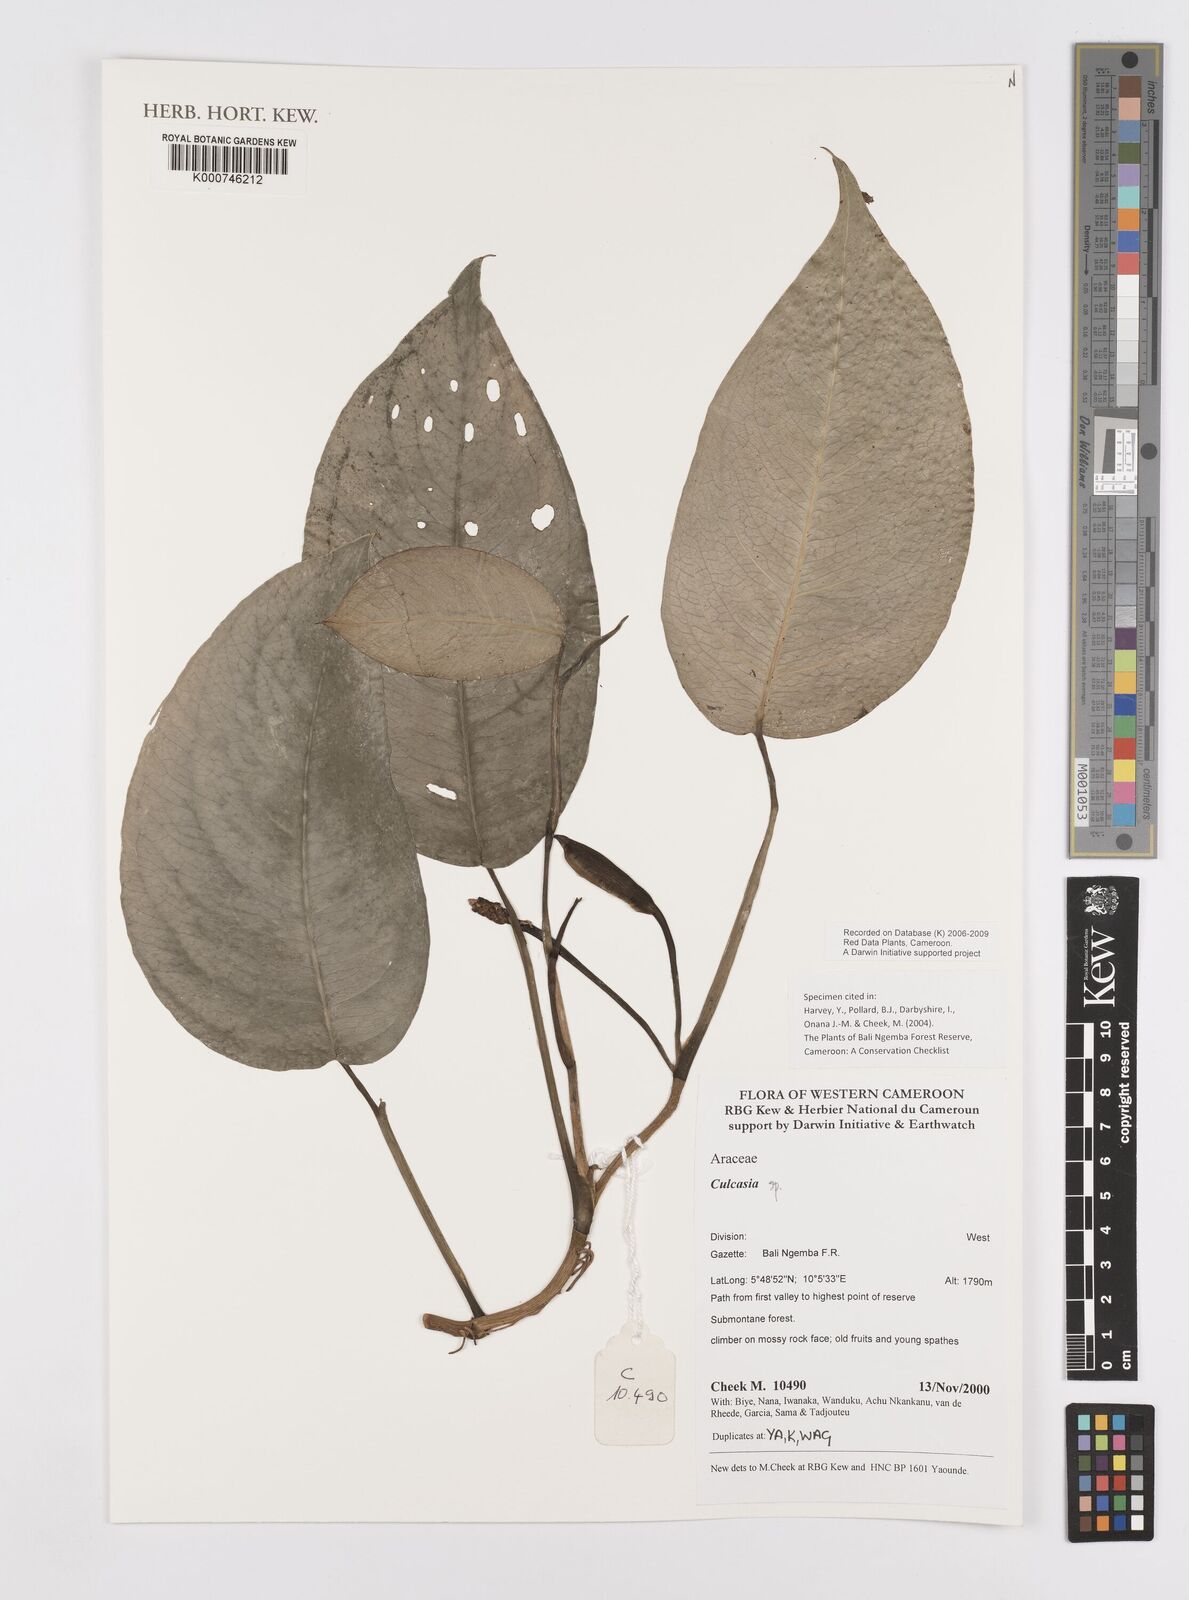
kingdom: Plantae
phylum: Tracheophyta
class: Liliopsida
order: Alismatales
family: Araceae
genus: Culcasia
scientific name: Culcasia
